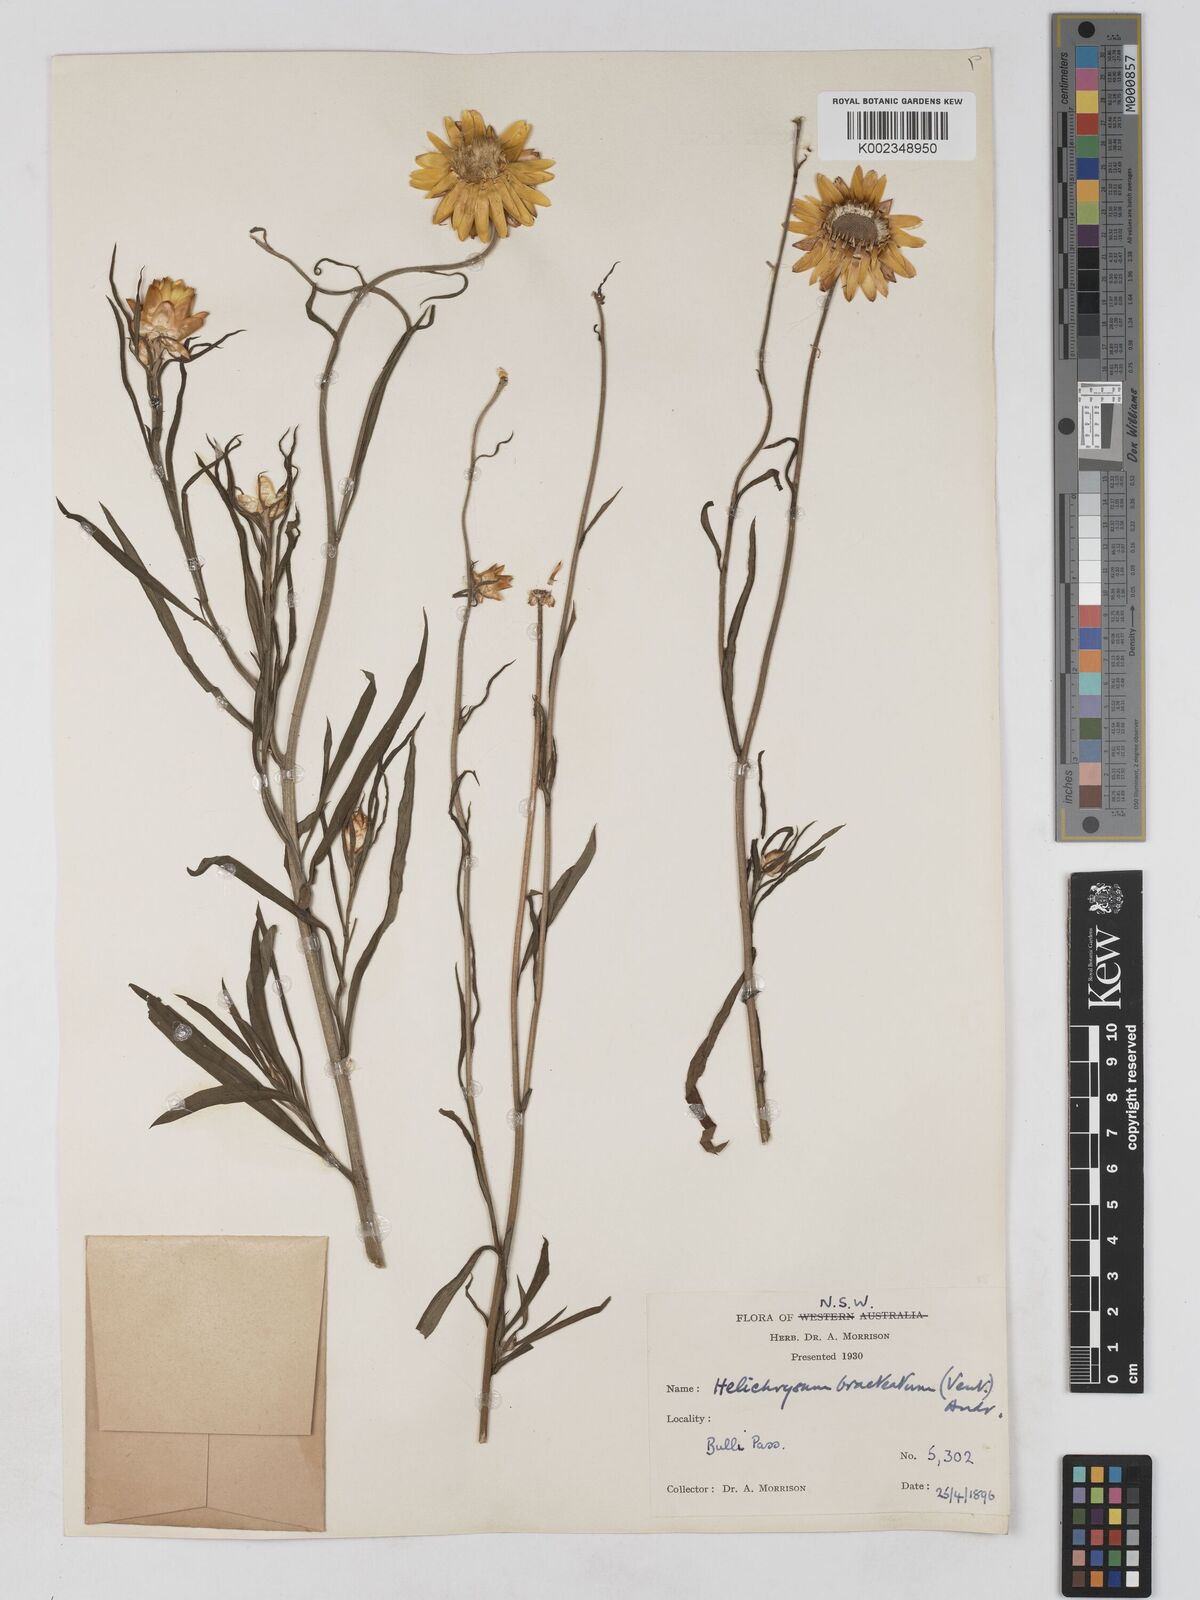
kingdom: Plantae
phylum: Tracheophyta
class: Magnoliopsida
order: Asterales
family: Asteraceae
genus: Xerochrysum
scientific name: Xerochrysum bracteatum
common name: Bracted strawflower
